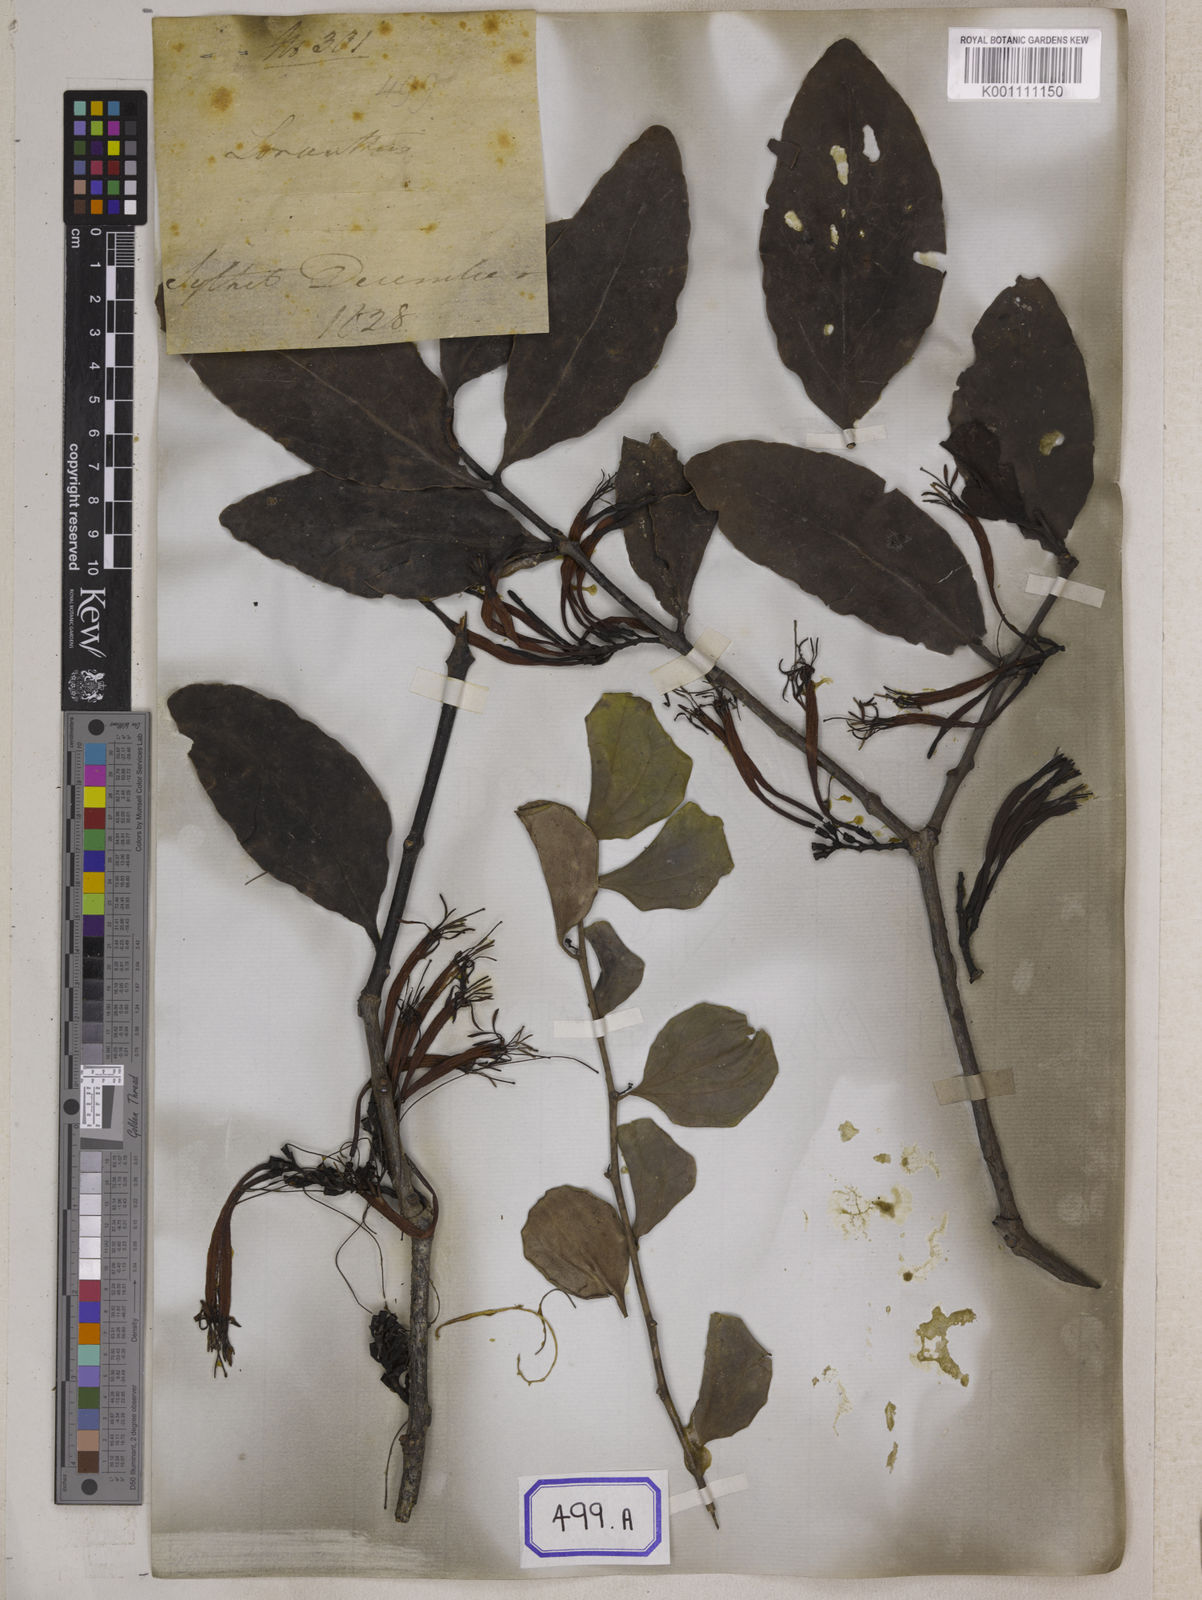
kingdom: Plantae
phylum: Tracheophyta
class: Magnoliopsida
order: Santalales
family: Loranthaceae
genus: Dendrophthoe
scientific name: Dendrophthoe falcata
